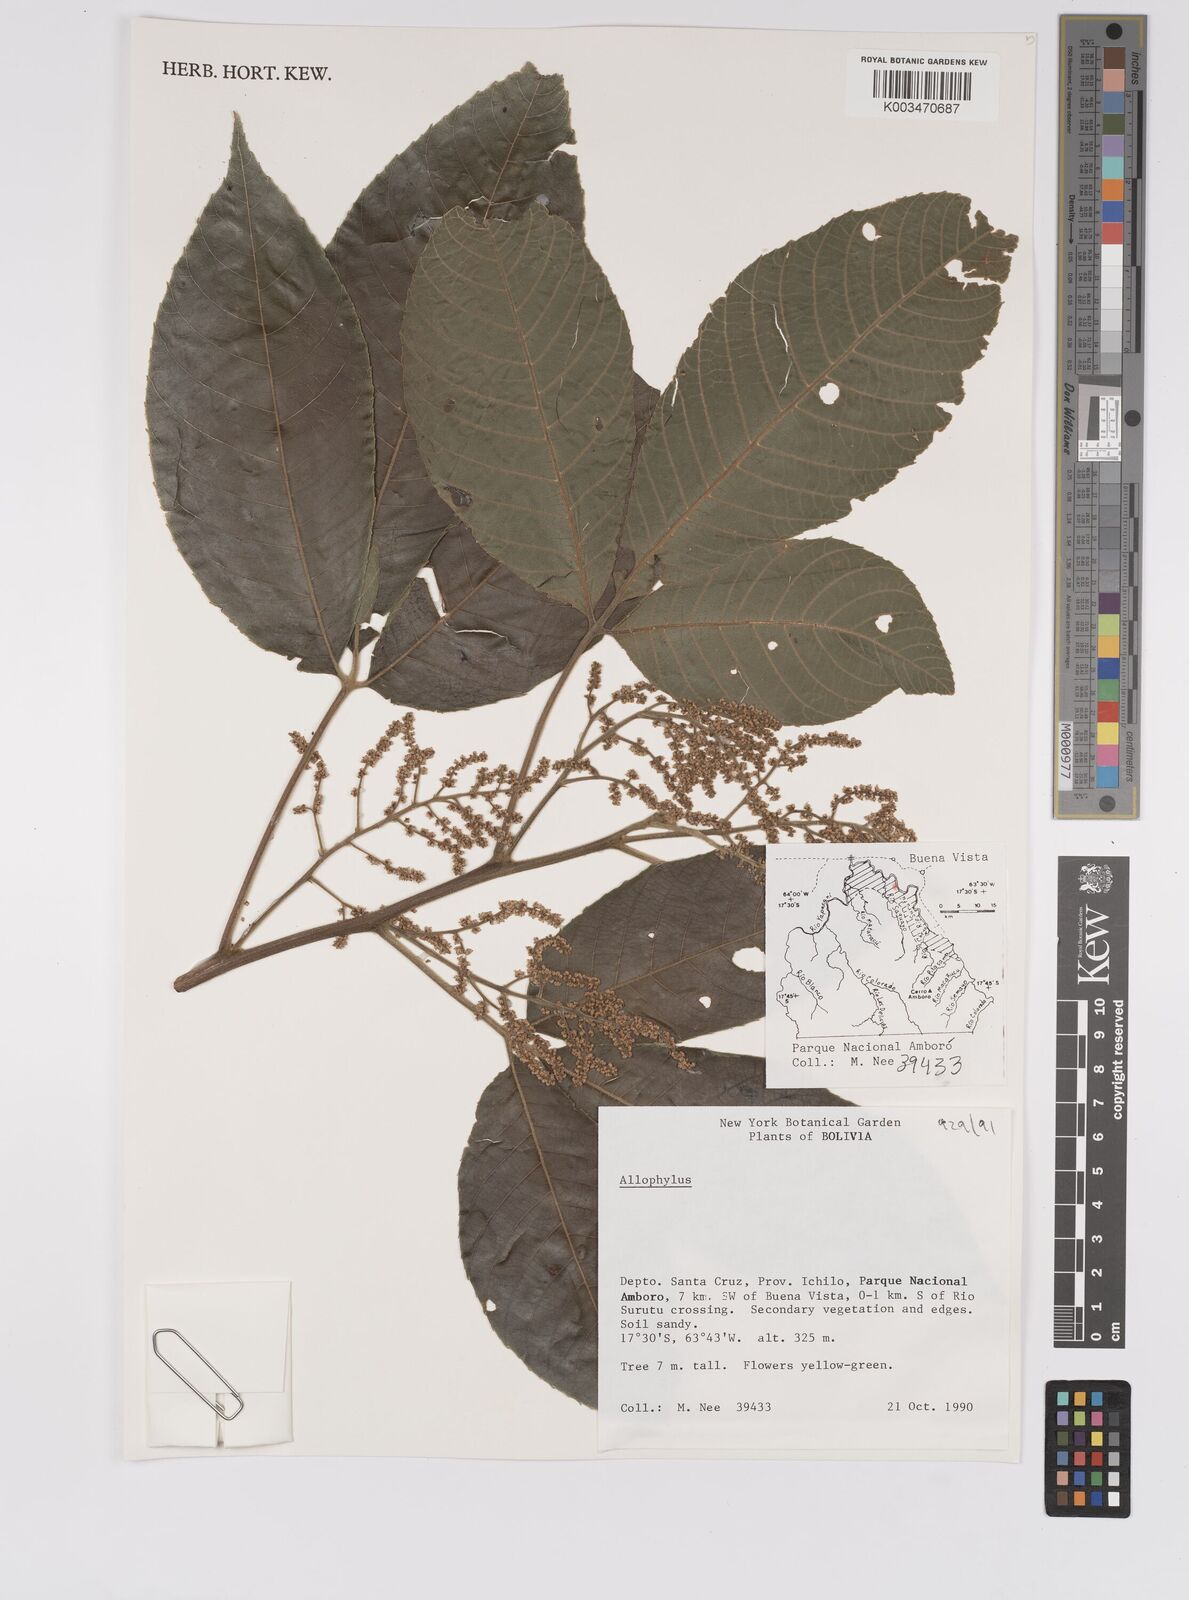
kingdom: Plantae
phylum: Tracheophyta
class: Magnoliopsida
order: Sapindales
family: Sapindaceae
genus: Allophylus
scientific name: Allophylus
